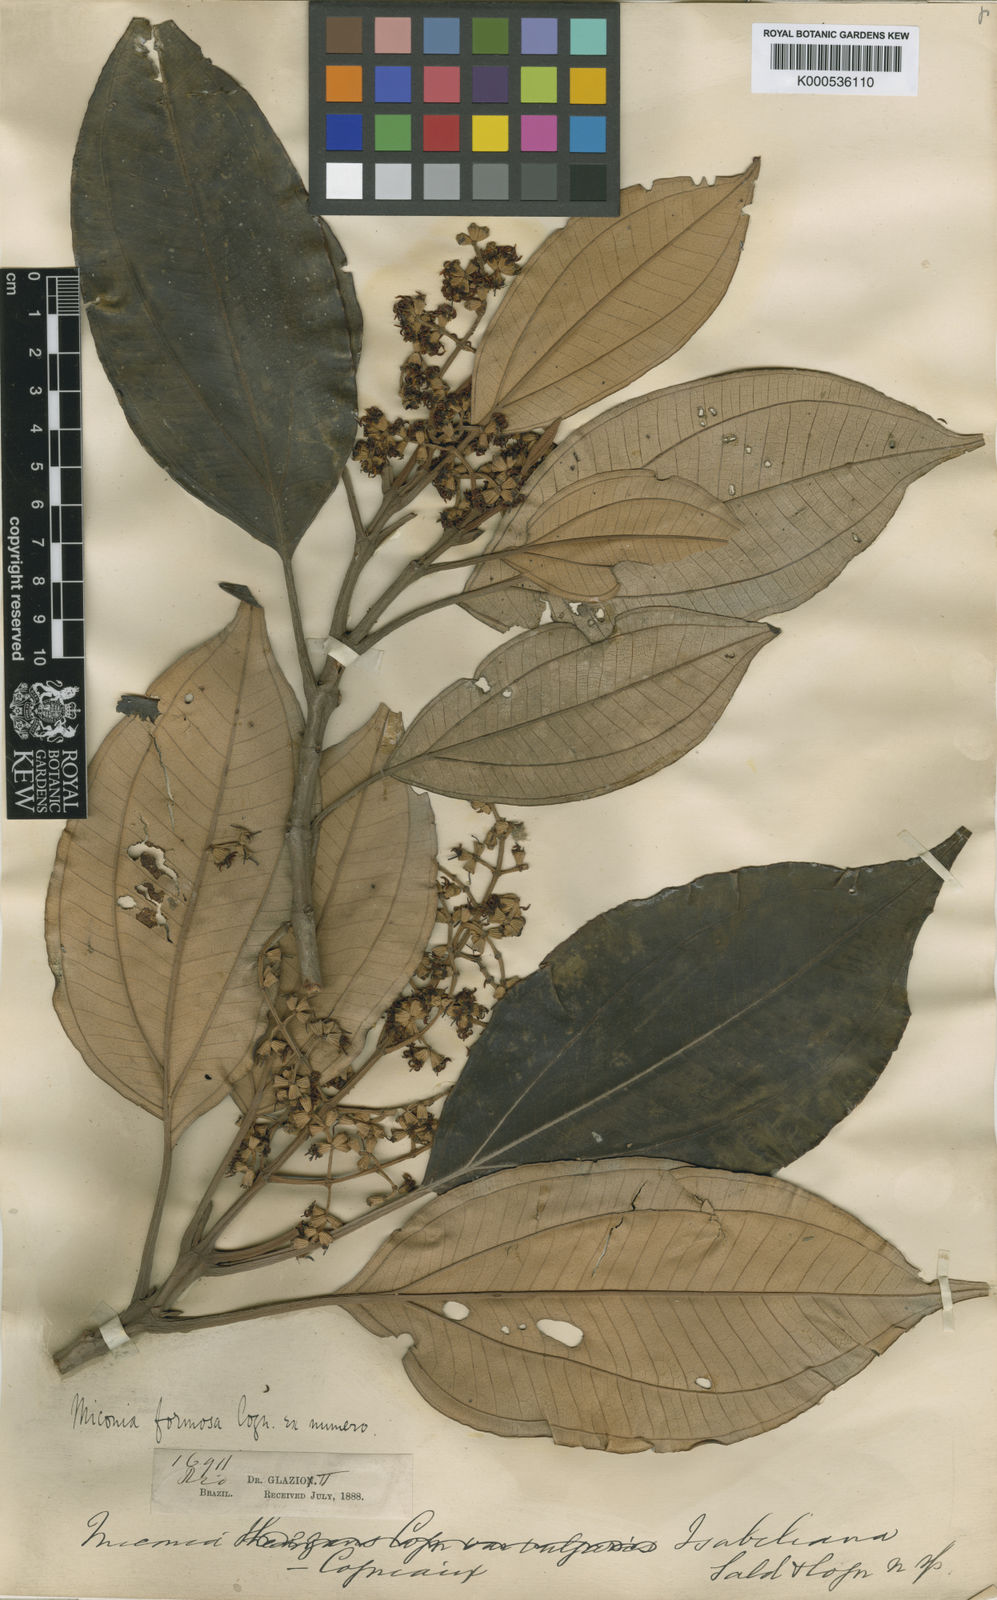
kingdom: Plantae
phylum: Tracheophyta
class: Magnoliopsida
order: Myrtales
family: Melastomataceae
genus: Miconia
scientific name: Miconia formosa
